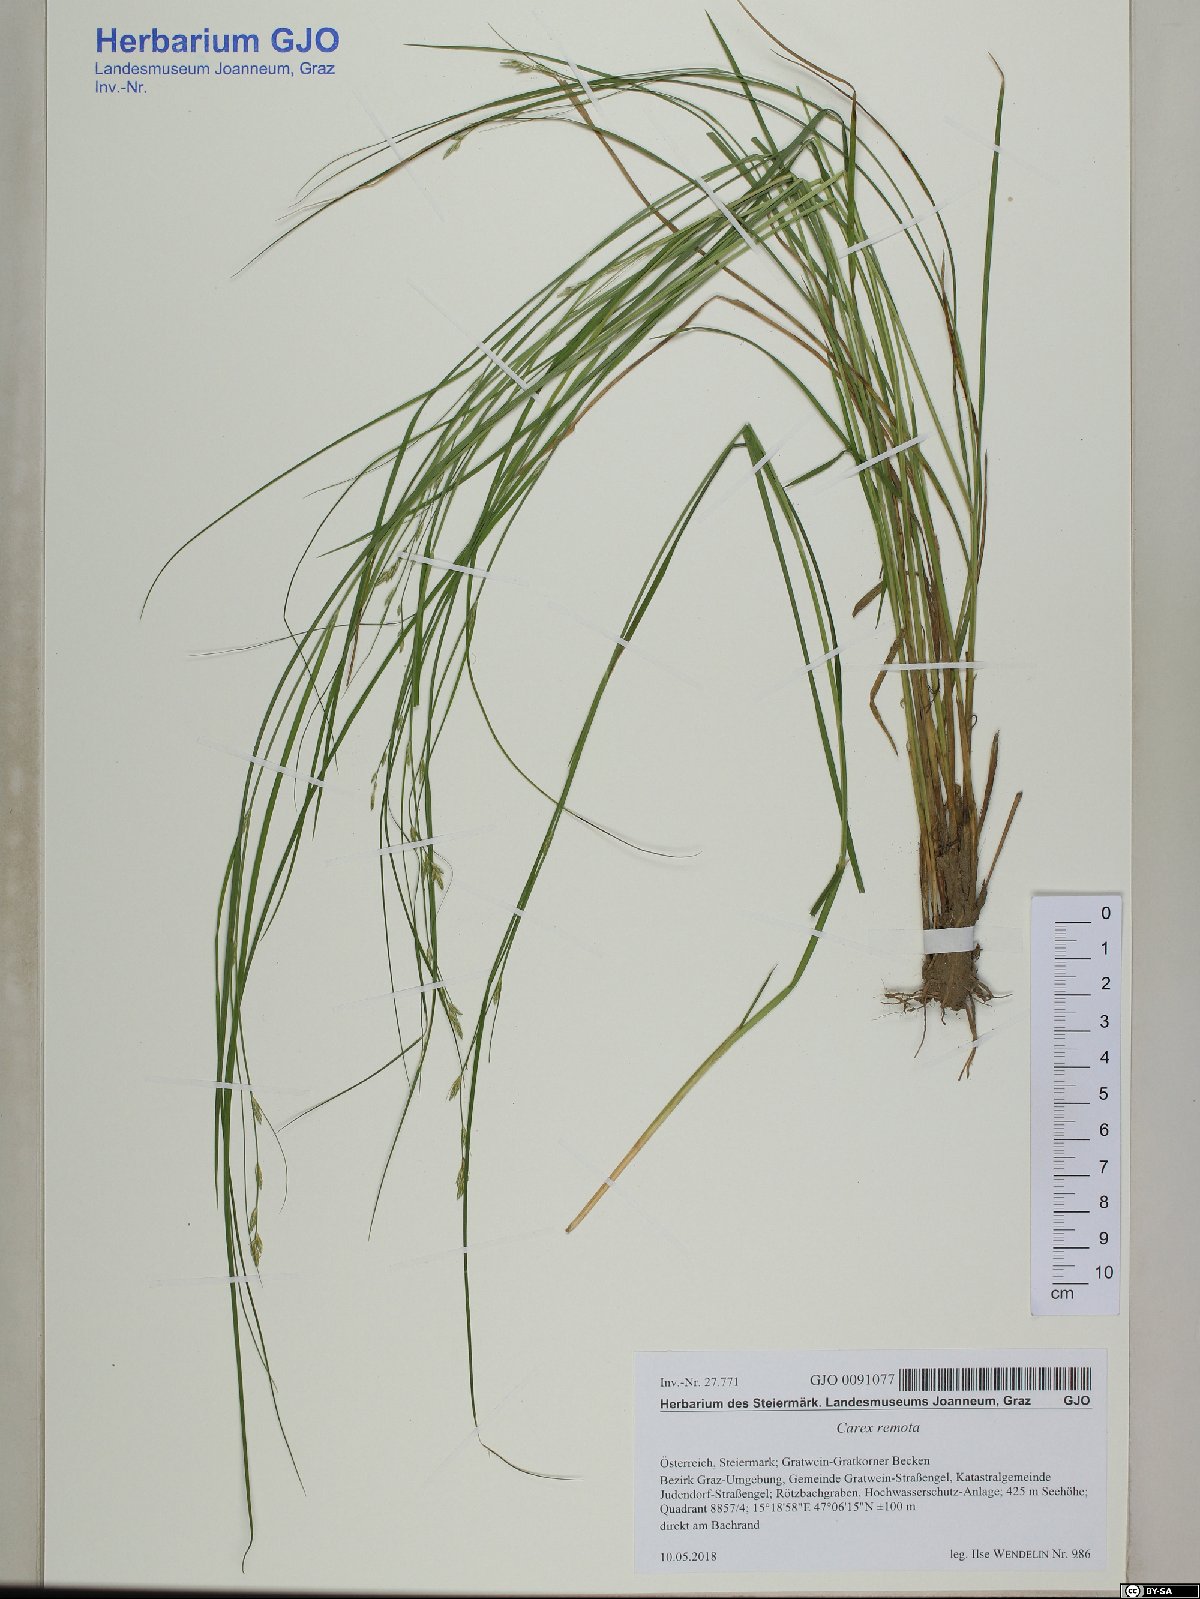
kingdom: Plantae
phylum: Tracheophyta
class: Liliopsida
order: Poales
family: Cyperaceae
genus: Carex
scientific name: Carex remota
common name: Remote sedge
